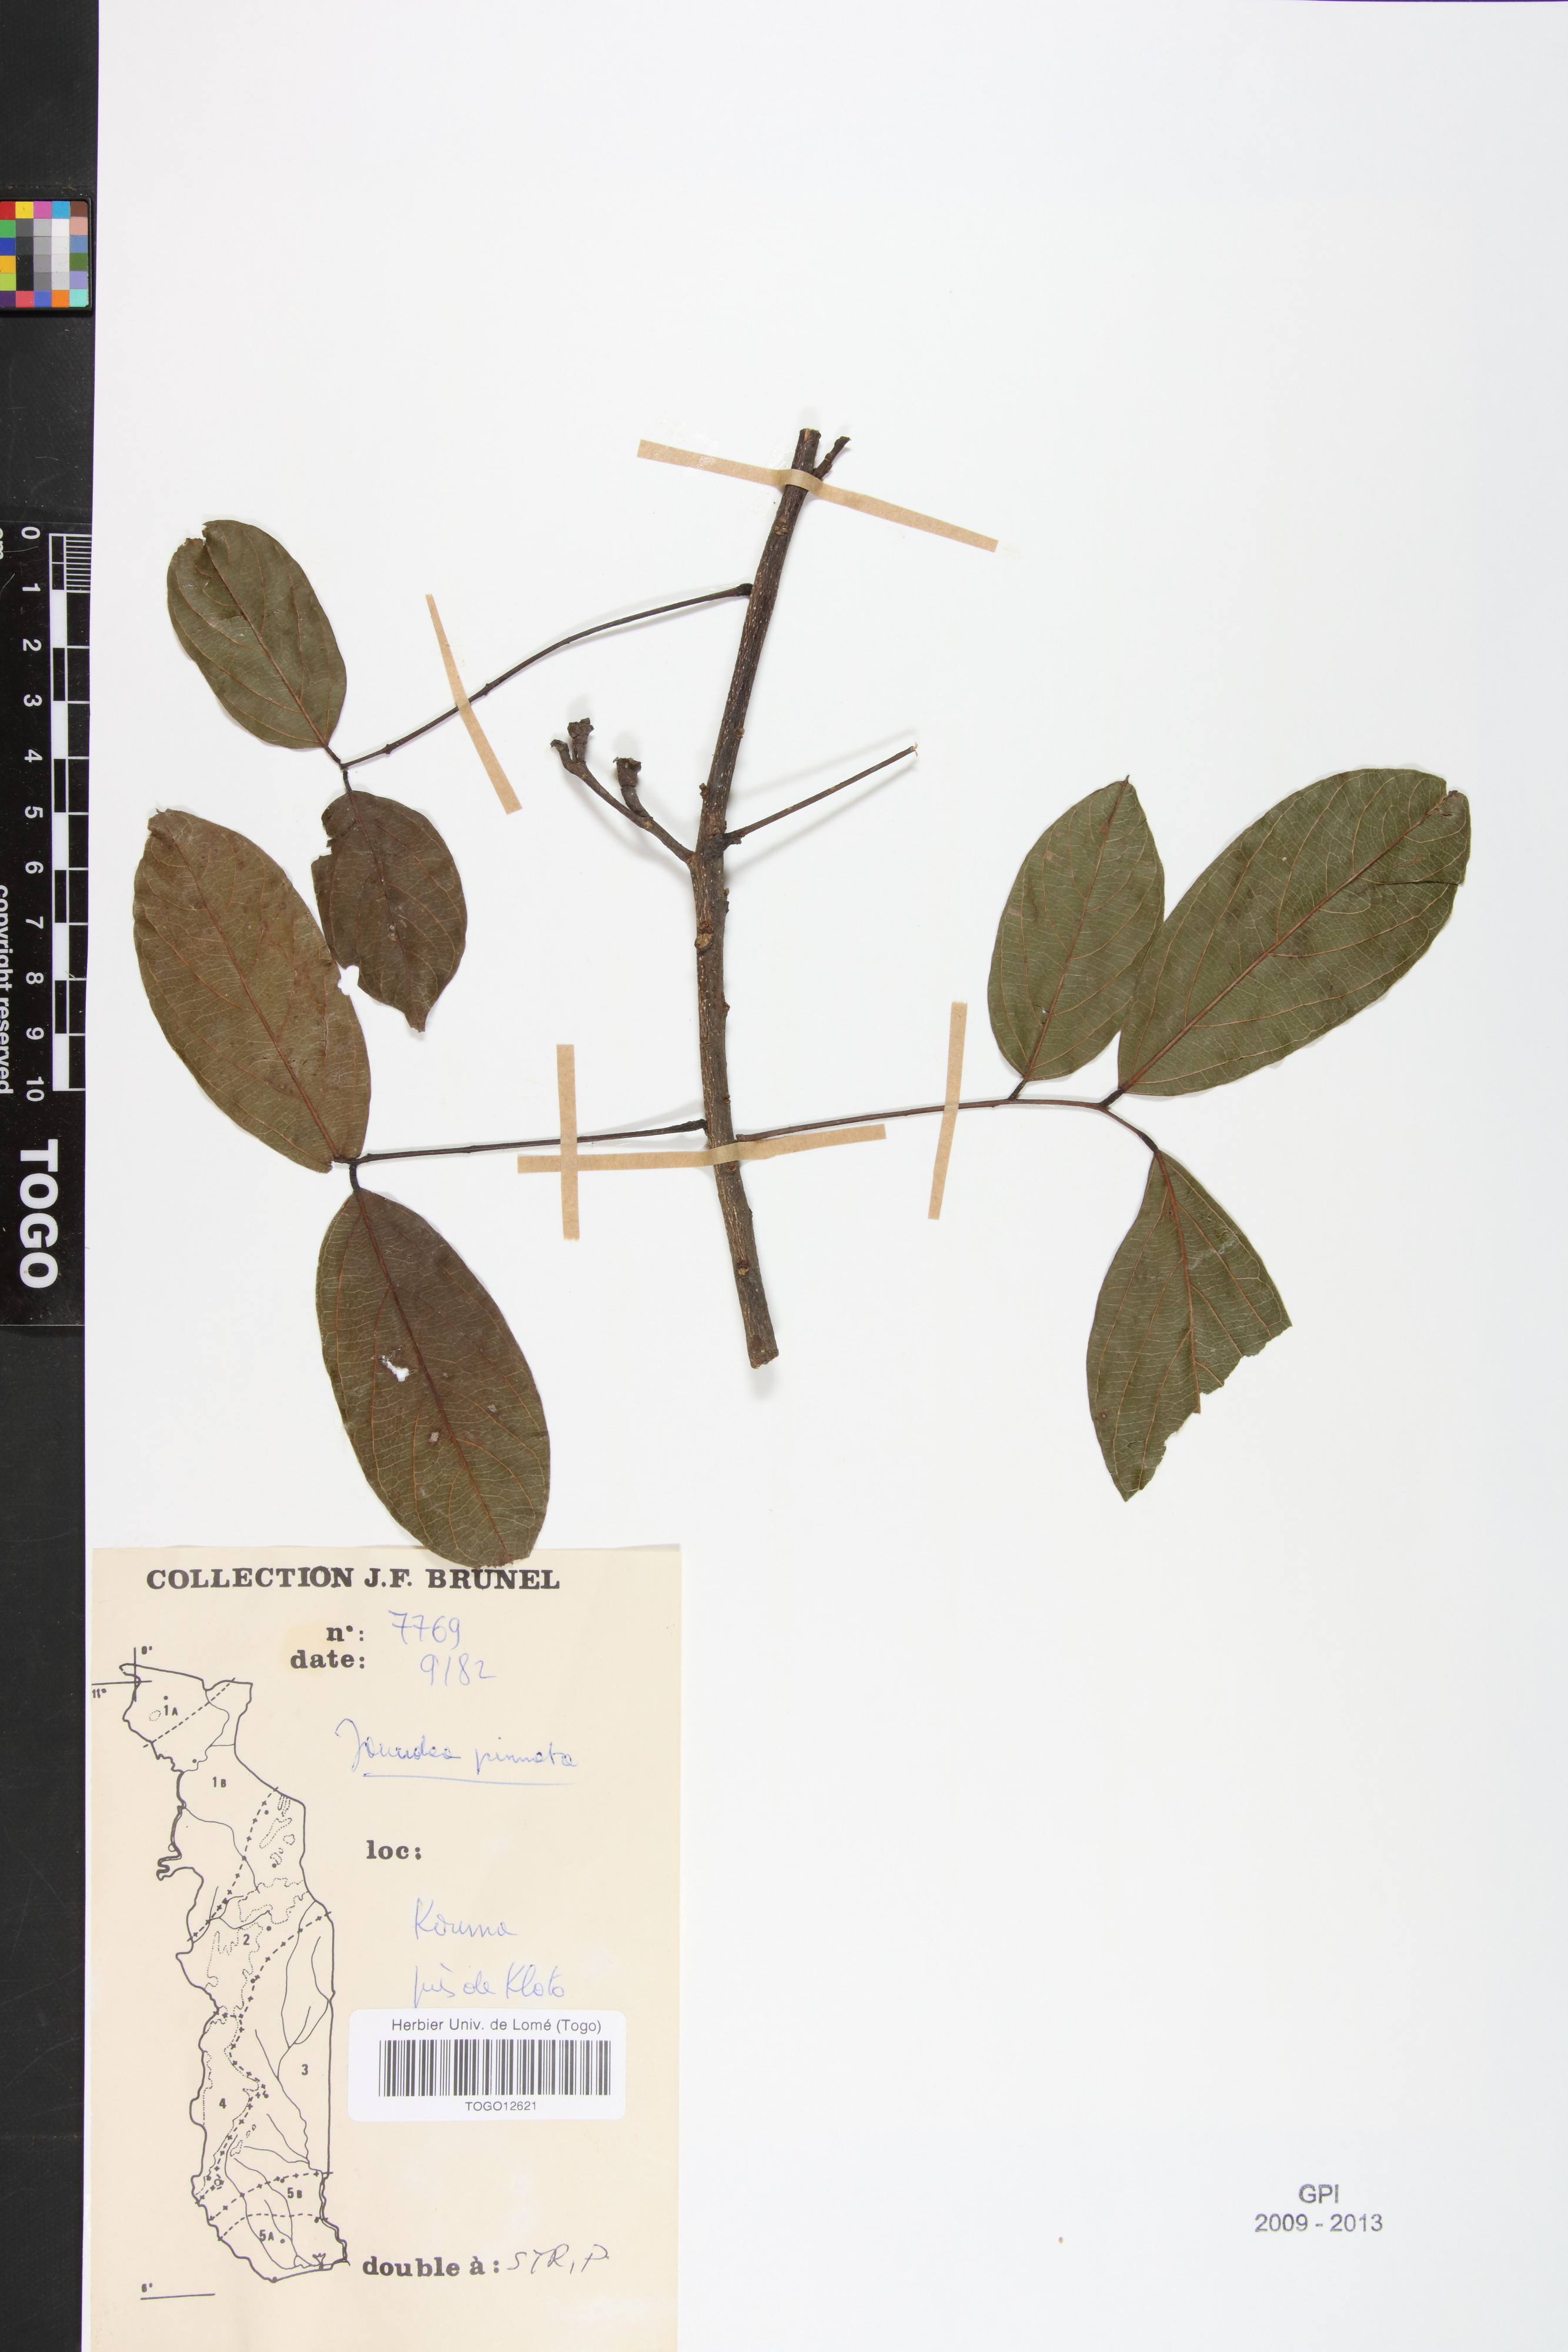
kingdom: Plantae
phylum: Tracheophyta
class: Magnoliopsida
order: Oxalidales
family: Connaraceae
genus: Rourea
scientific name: Rourea thomsonii
